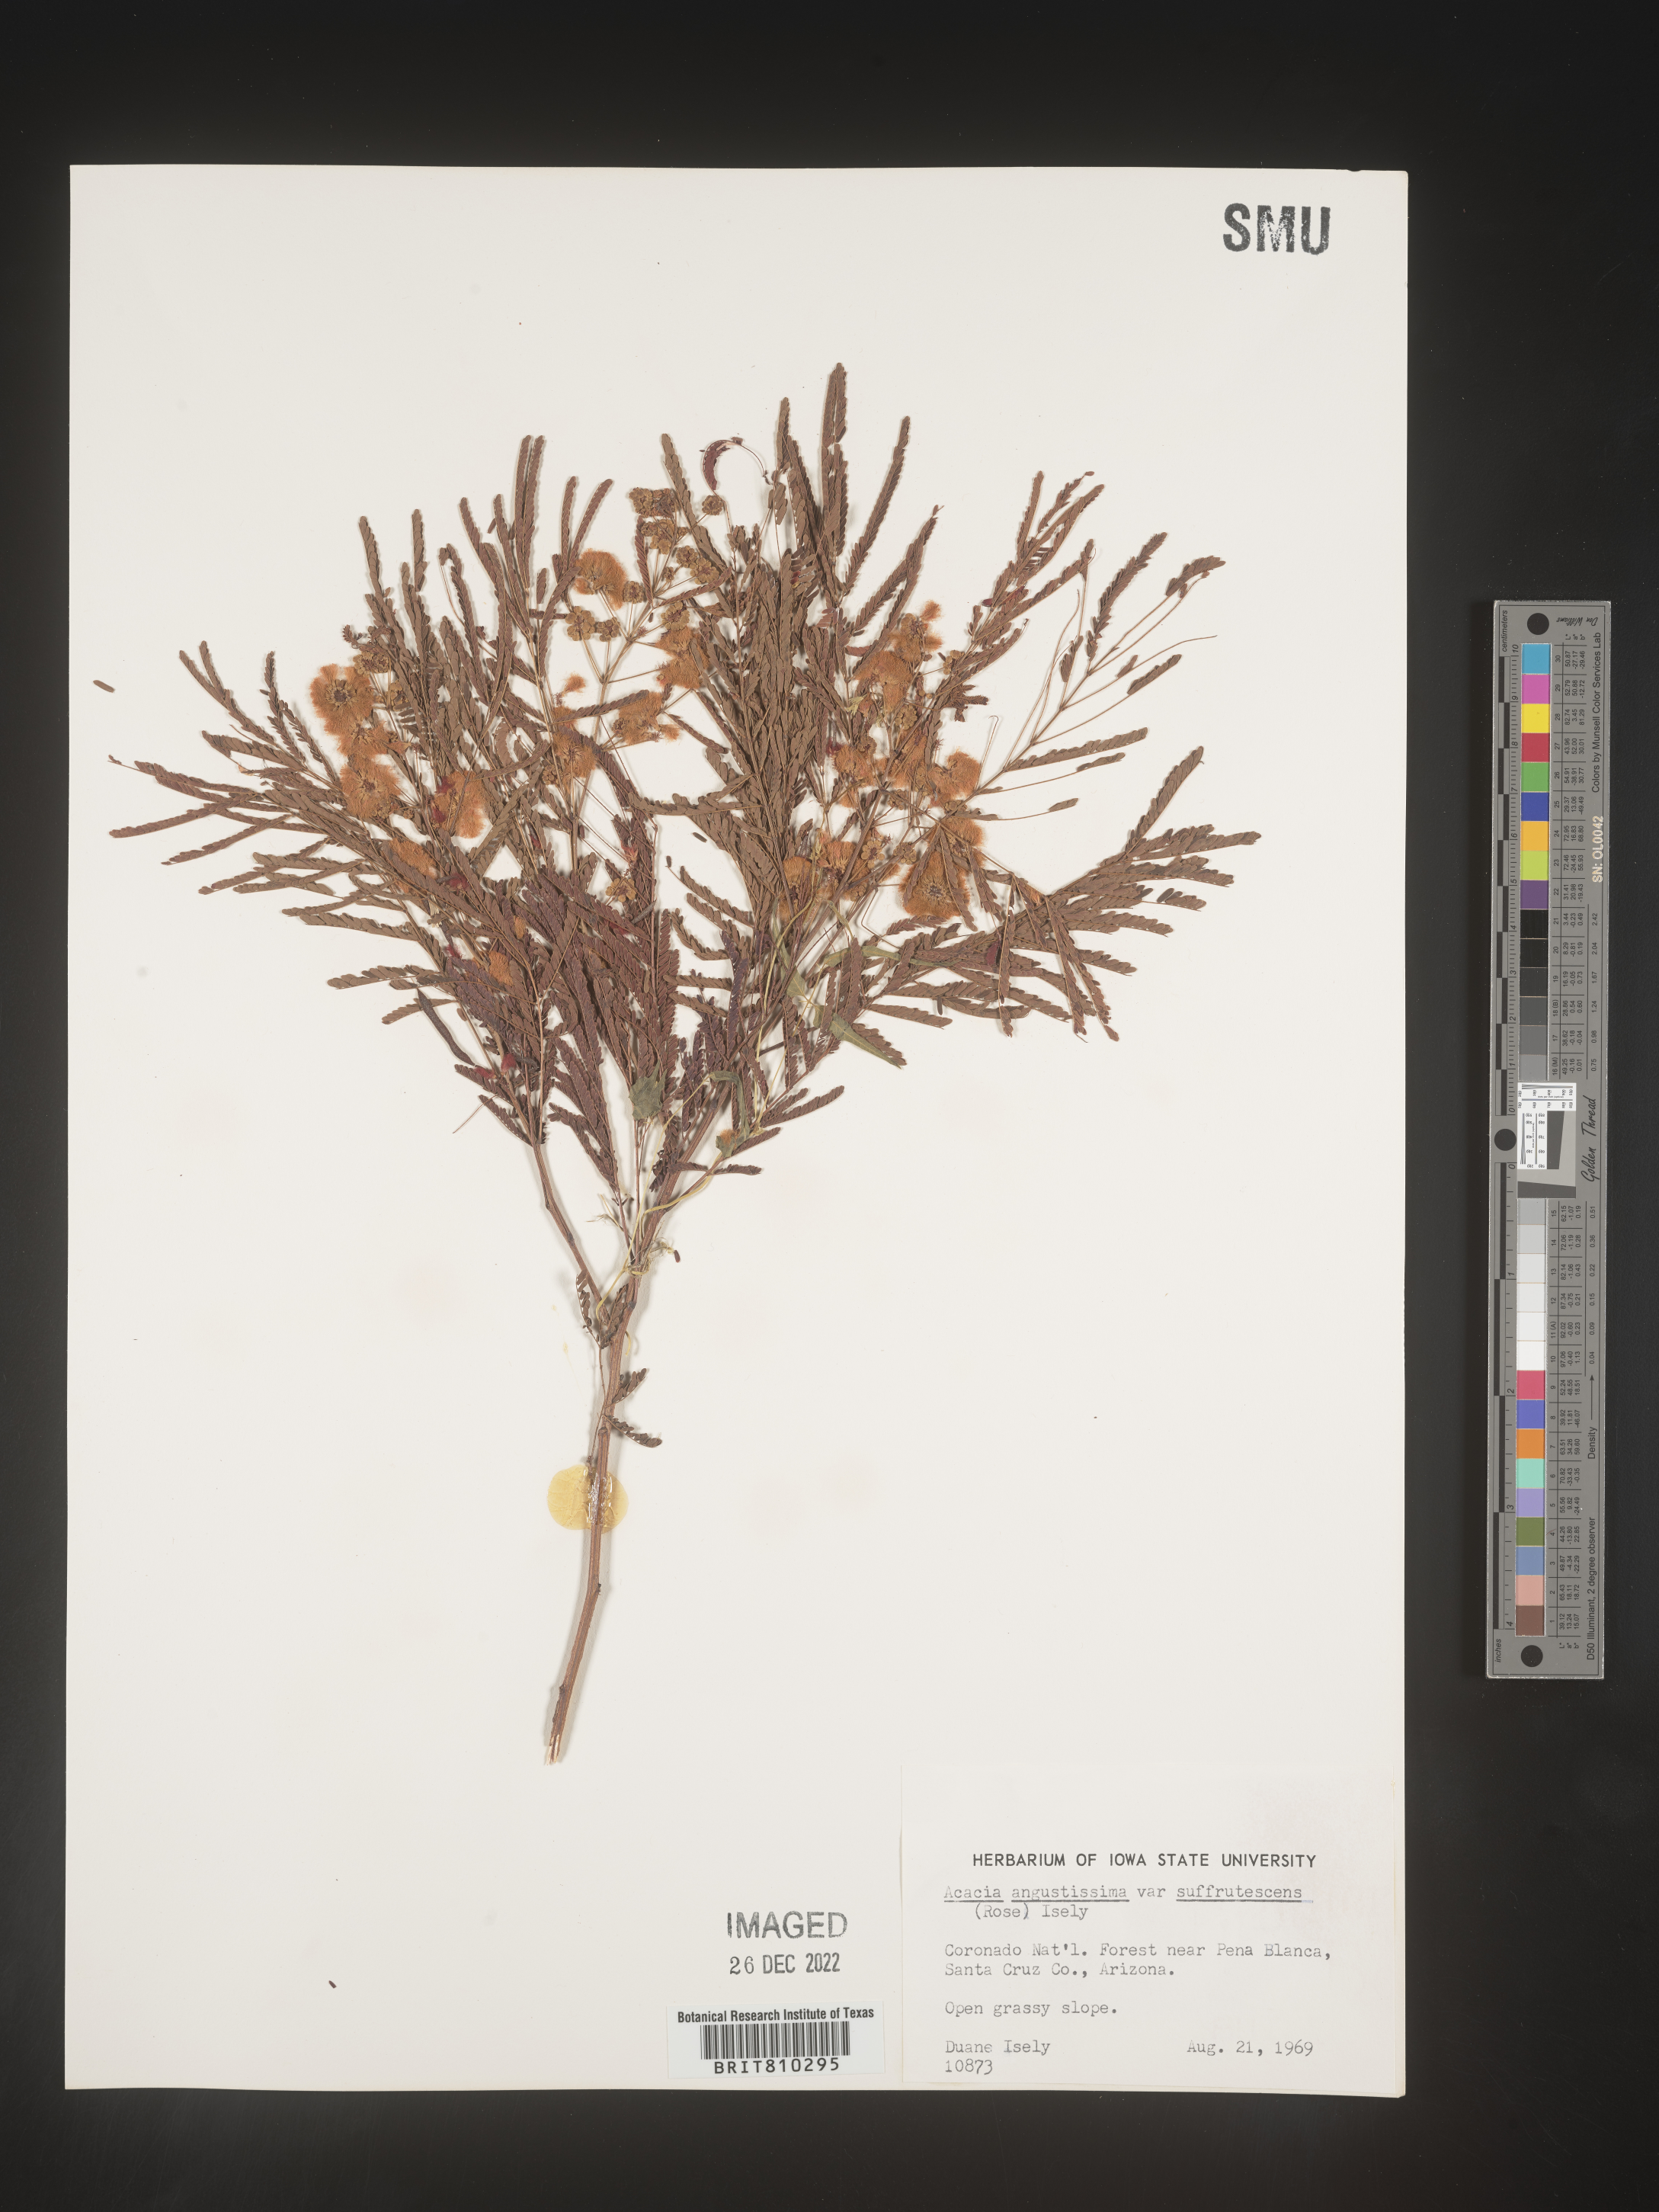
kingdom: Plantae
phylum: Tracheophyta
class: Magnoliopsida
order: Fabales
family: Fabaceae
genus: Acaciella
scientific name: Acaciella angustissima
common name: Prairie acacia
